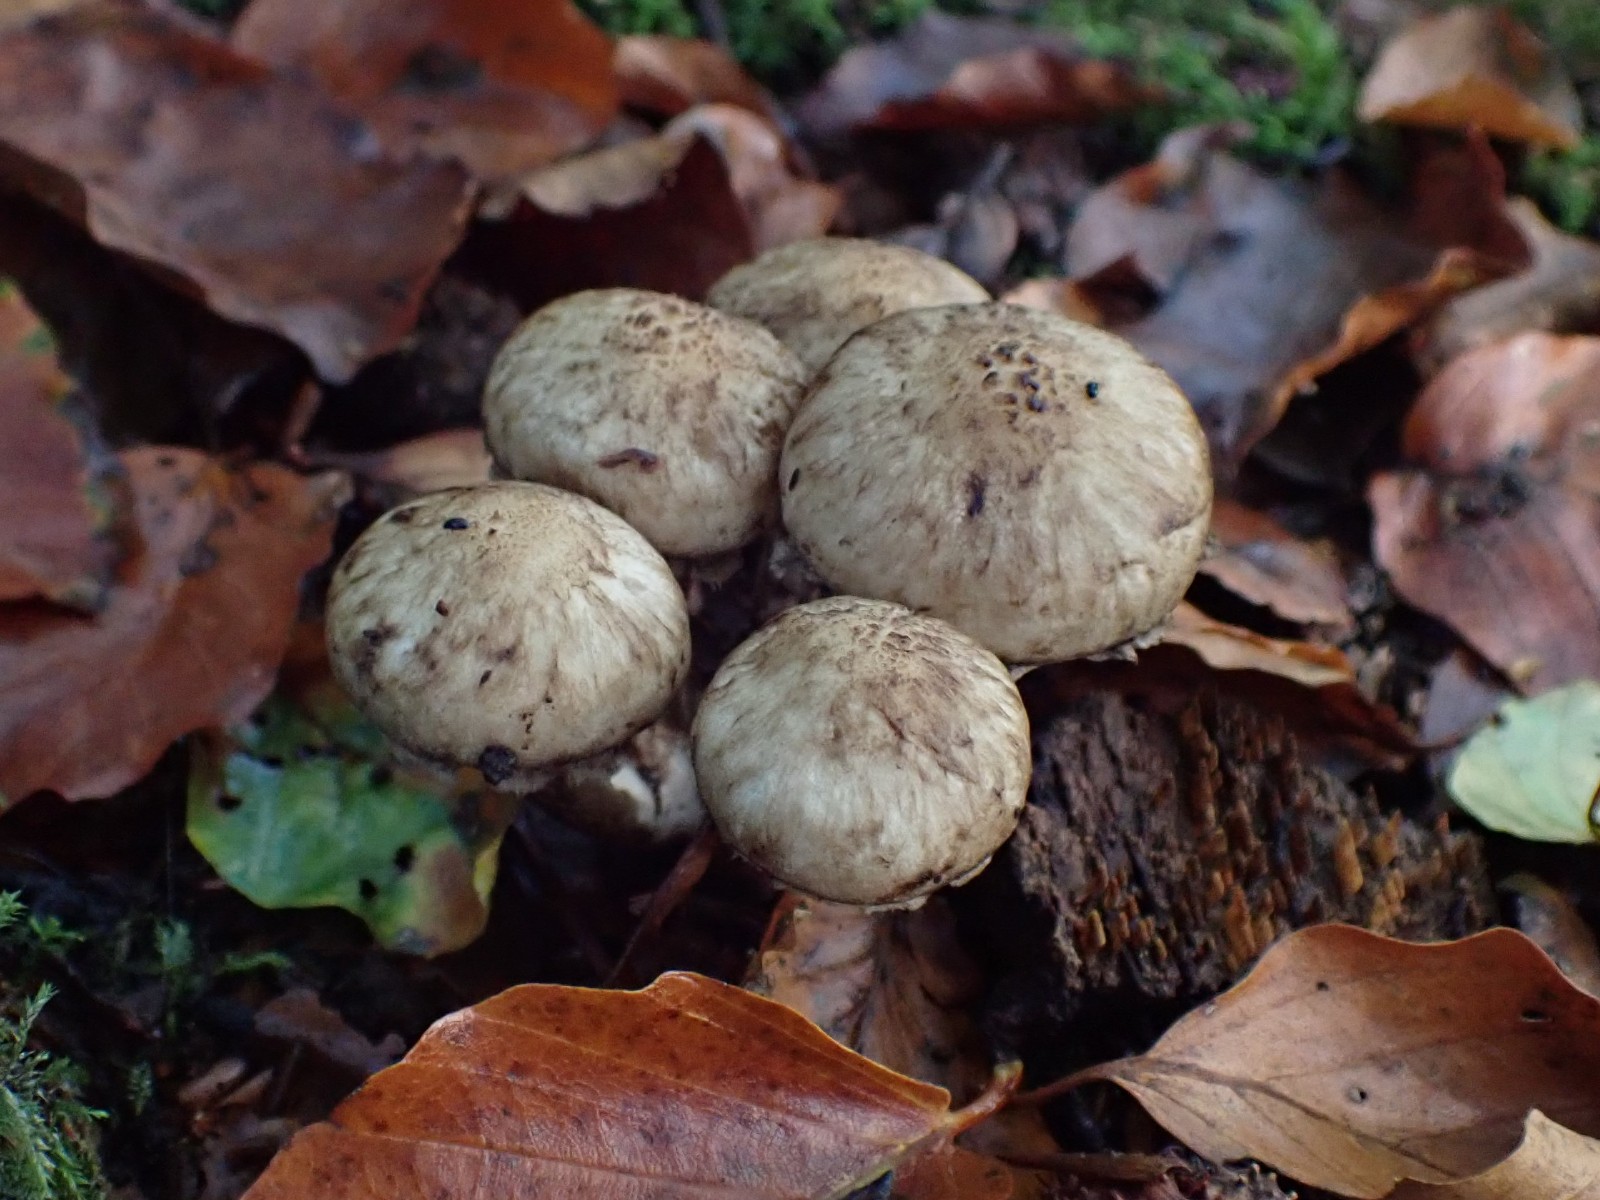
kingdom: Fungi
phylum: Basidiomycota
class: Agaricomycetes
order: Agaricales
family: Psathyrellaceae
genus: Psathyrella
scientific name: Psathyrella cotonea
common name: skællet mørkhat
